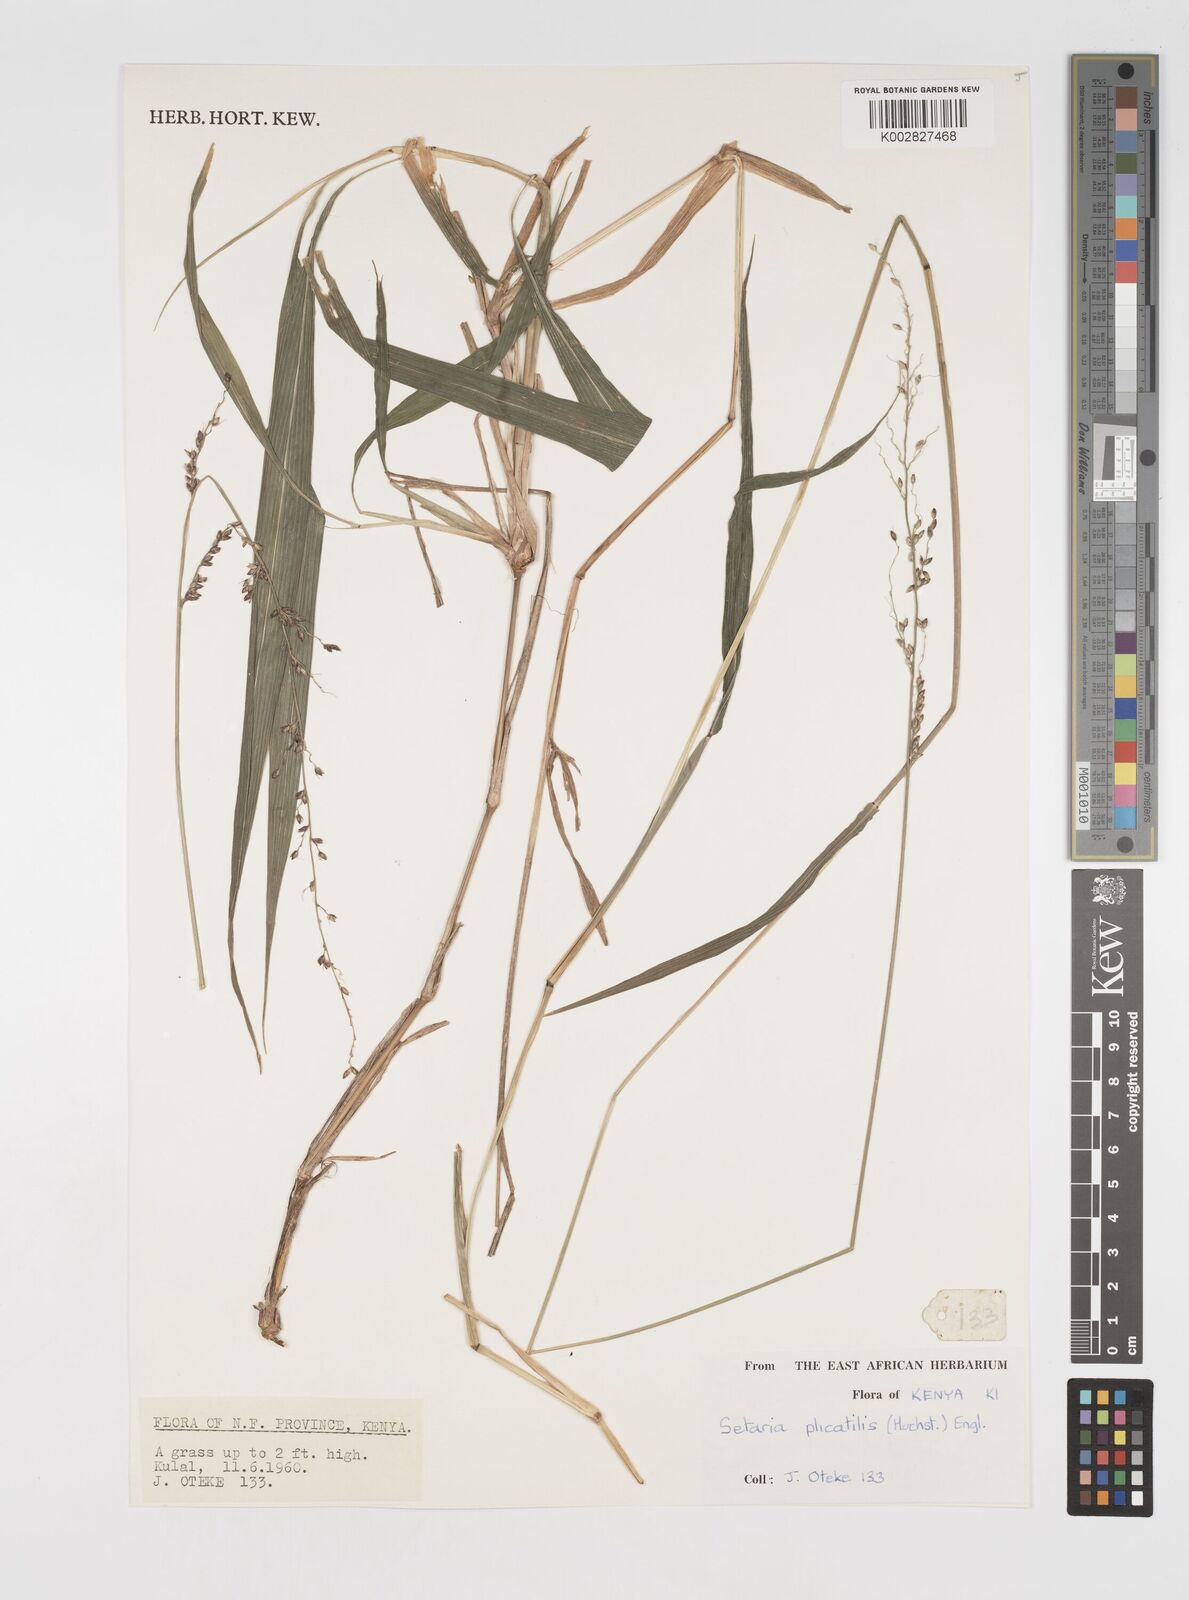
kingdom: Plantae
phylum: Tracheophyta
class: Liliopsida
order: Poales
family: Poaceae
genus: Setaria
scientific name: Setaria megaphylla
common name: Bigleaf bristlegrass
